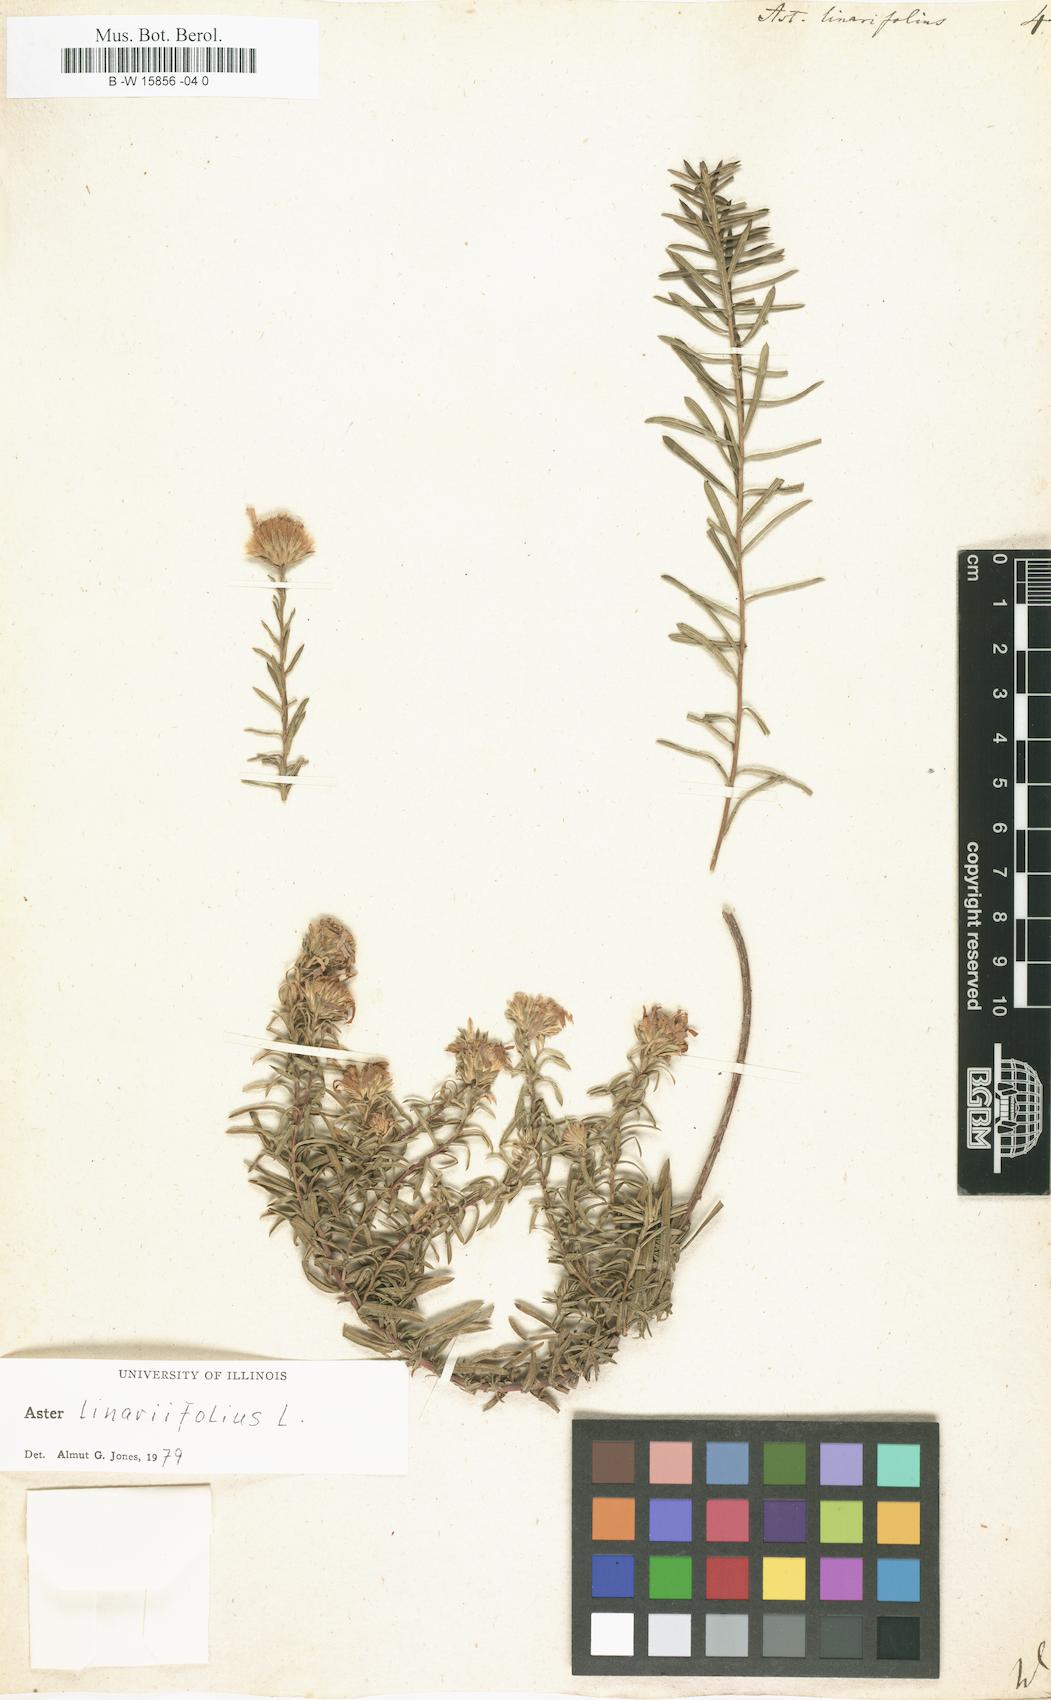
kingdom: Plantae
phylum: Tracheophyta
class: Magnoliopsida
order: Asterales
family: Asteraceae
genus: Aster
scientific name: Aster linariifolius
